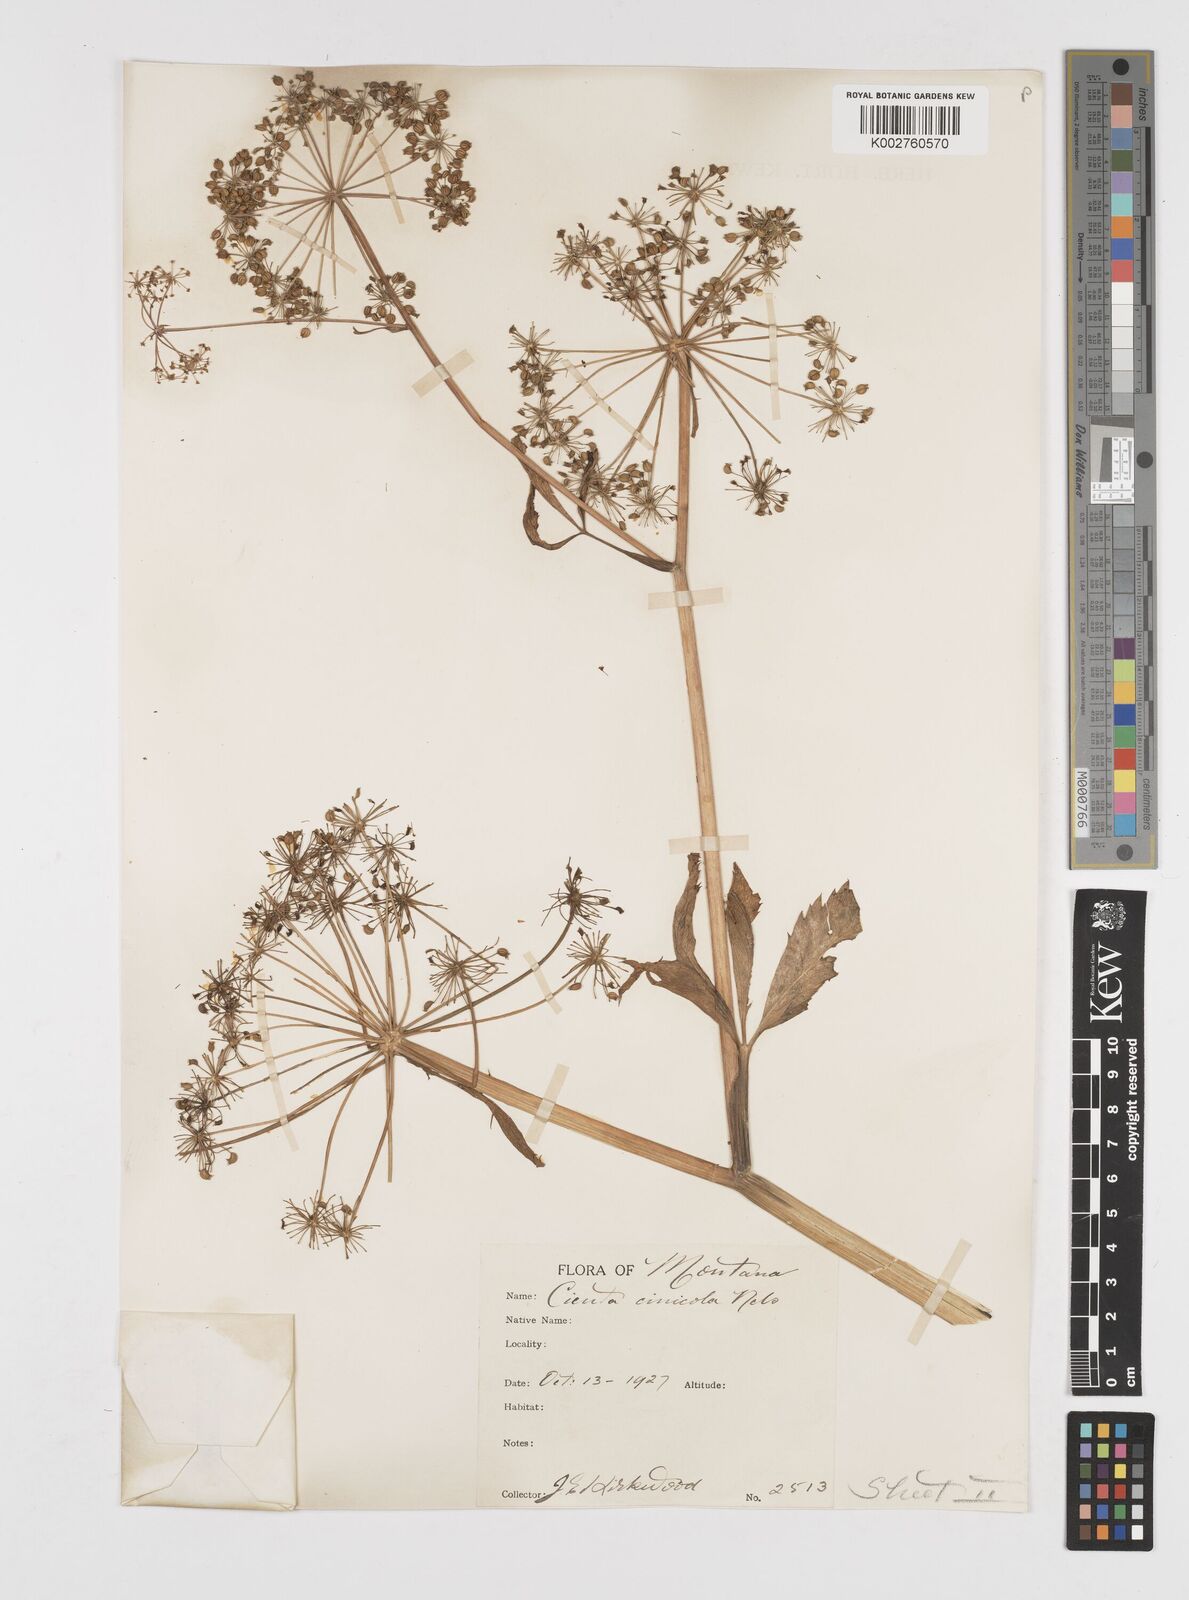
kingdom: Plantae
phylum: Tracheophyta
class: Magnoliopsida
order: Apiales
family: Apiaceae
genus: Cicuta
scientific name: Cicuta douglasii
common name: Western water-hemlock
